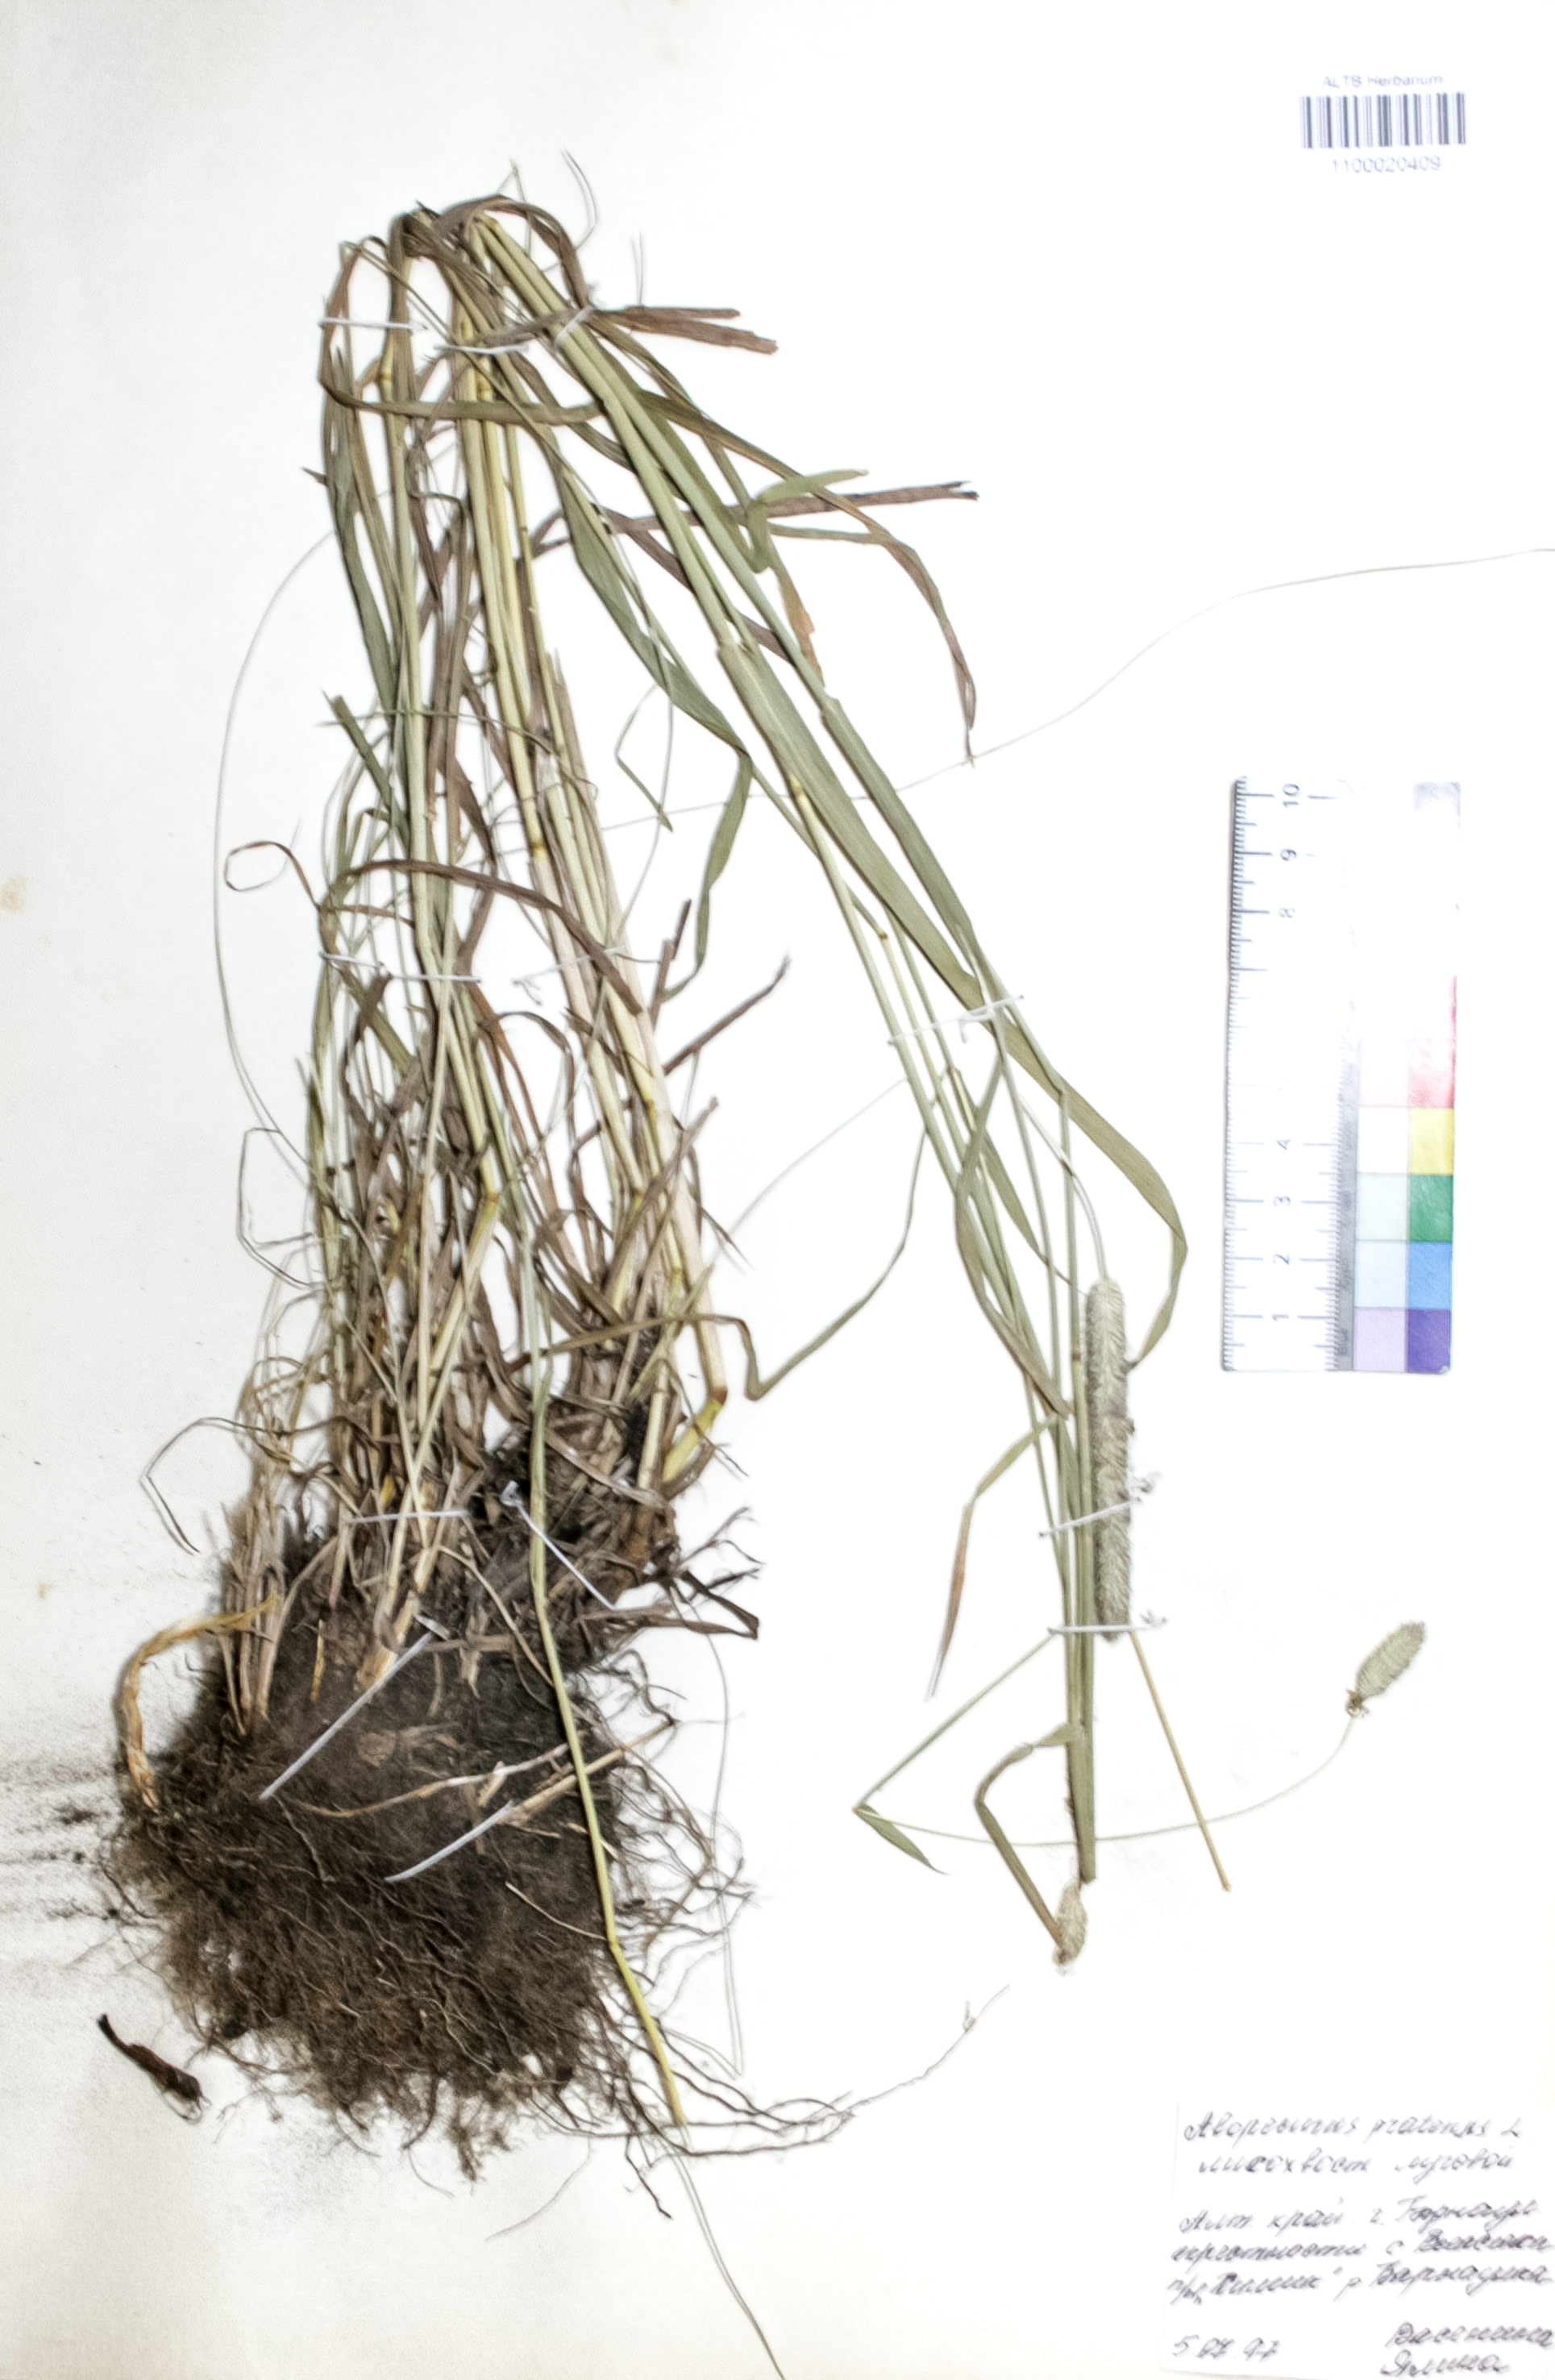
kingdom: Plantae
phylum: Tracheophyta
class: Liliopsida
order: Poales
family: Poaceae
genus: Phleum
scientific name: Phleum pratense
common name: Timothy grass
